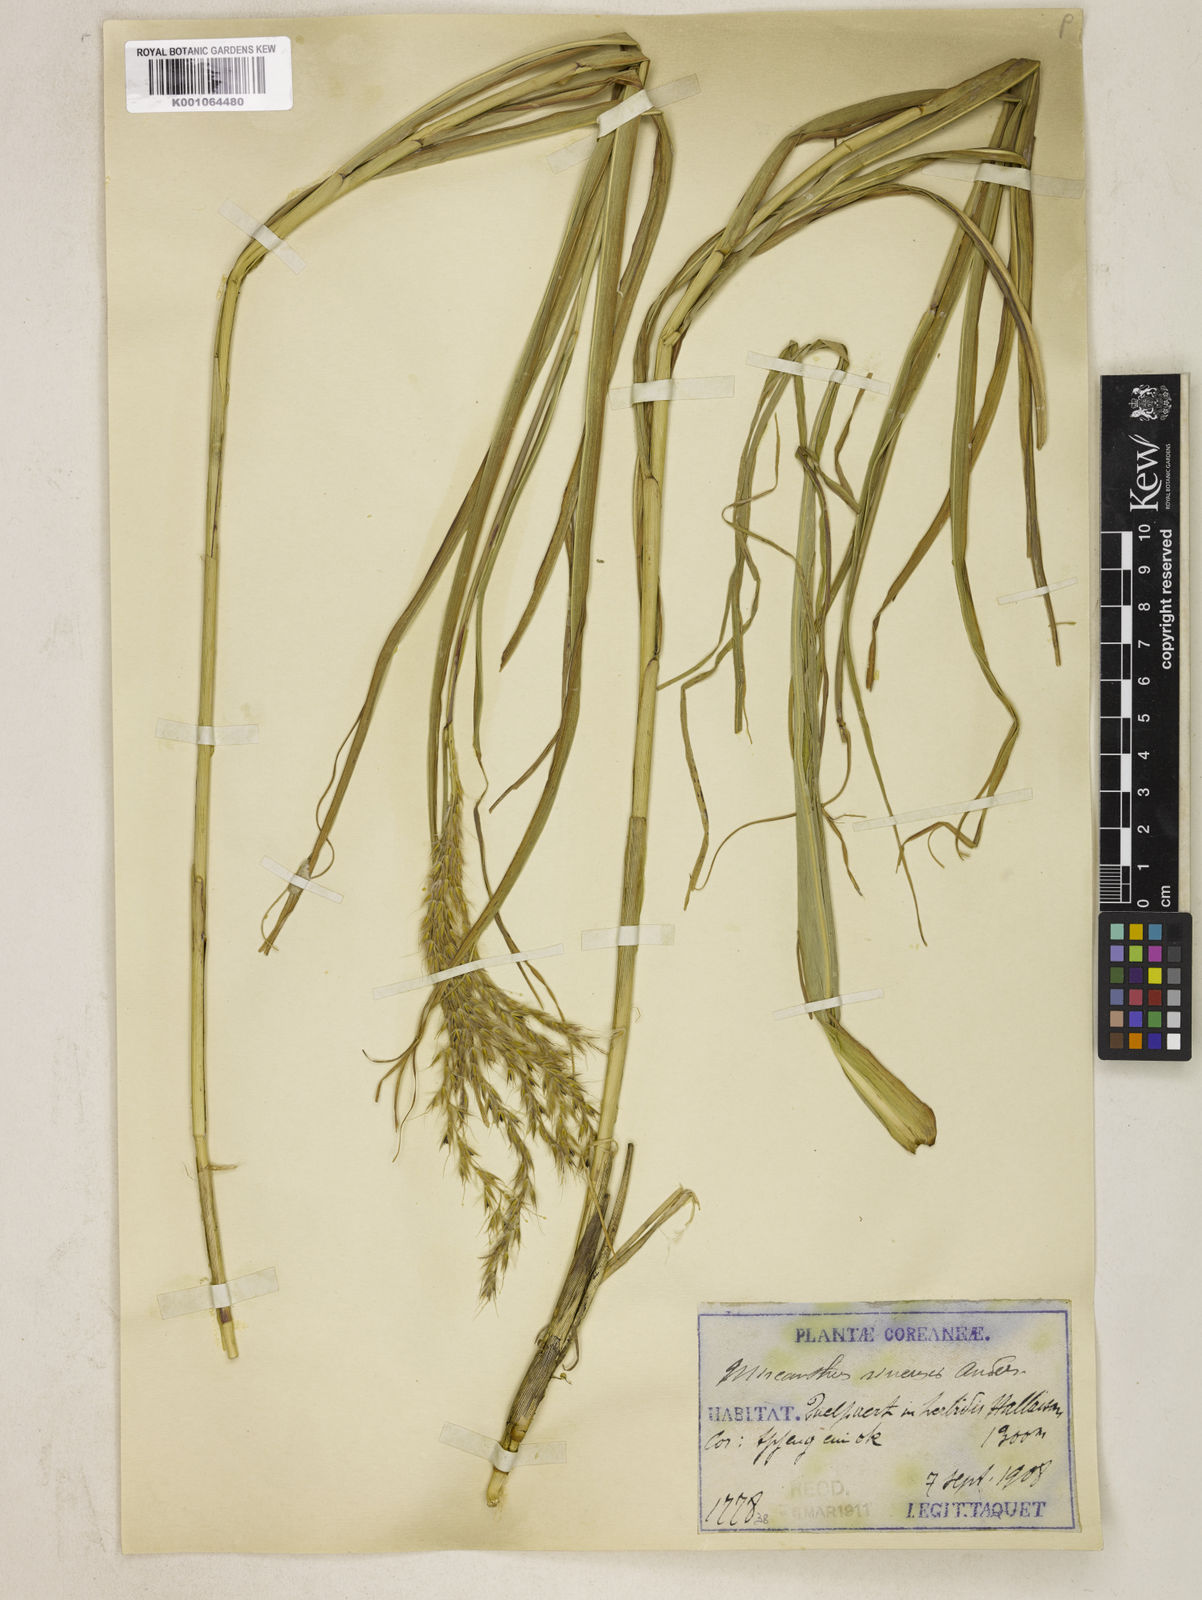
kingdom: Plantae
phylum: Tracheophyta
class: Liliopsida
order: Poales
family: Poaceae
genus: Miscanthus
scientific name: Miscanthus sinensis
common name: Chinese silvergrass
